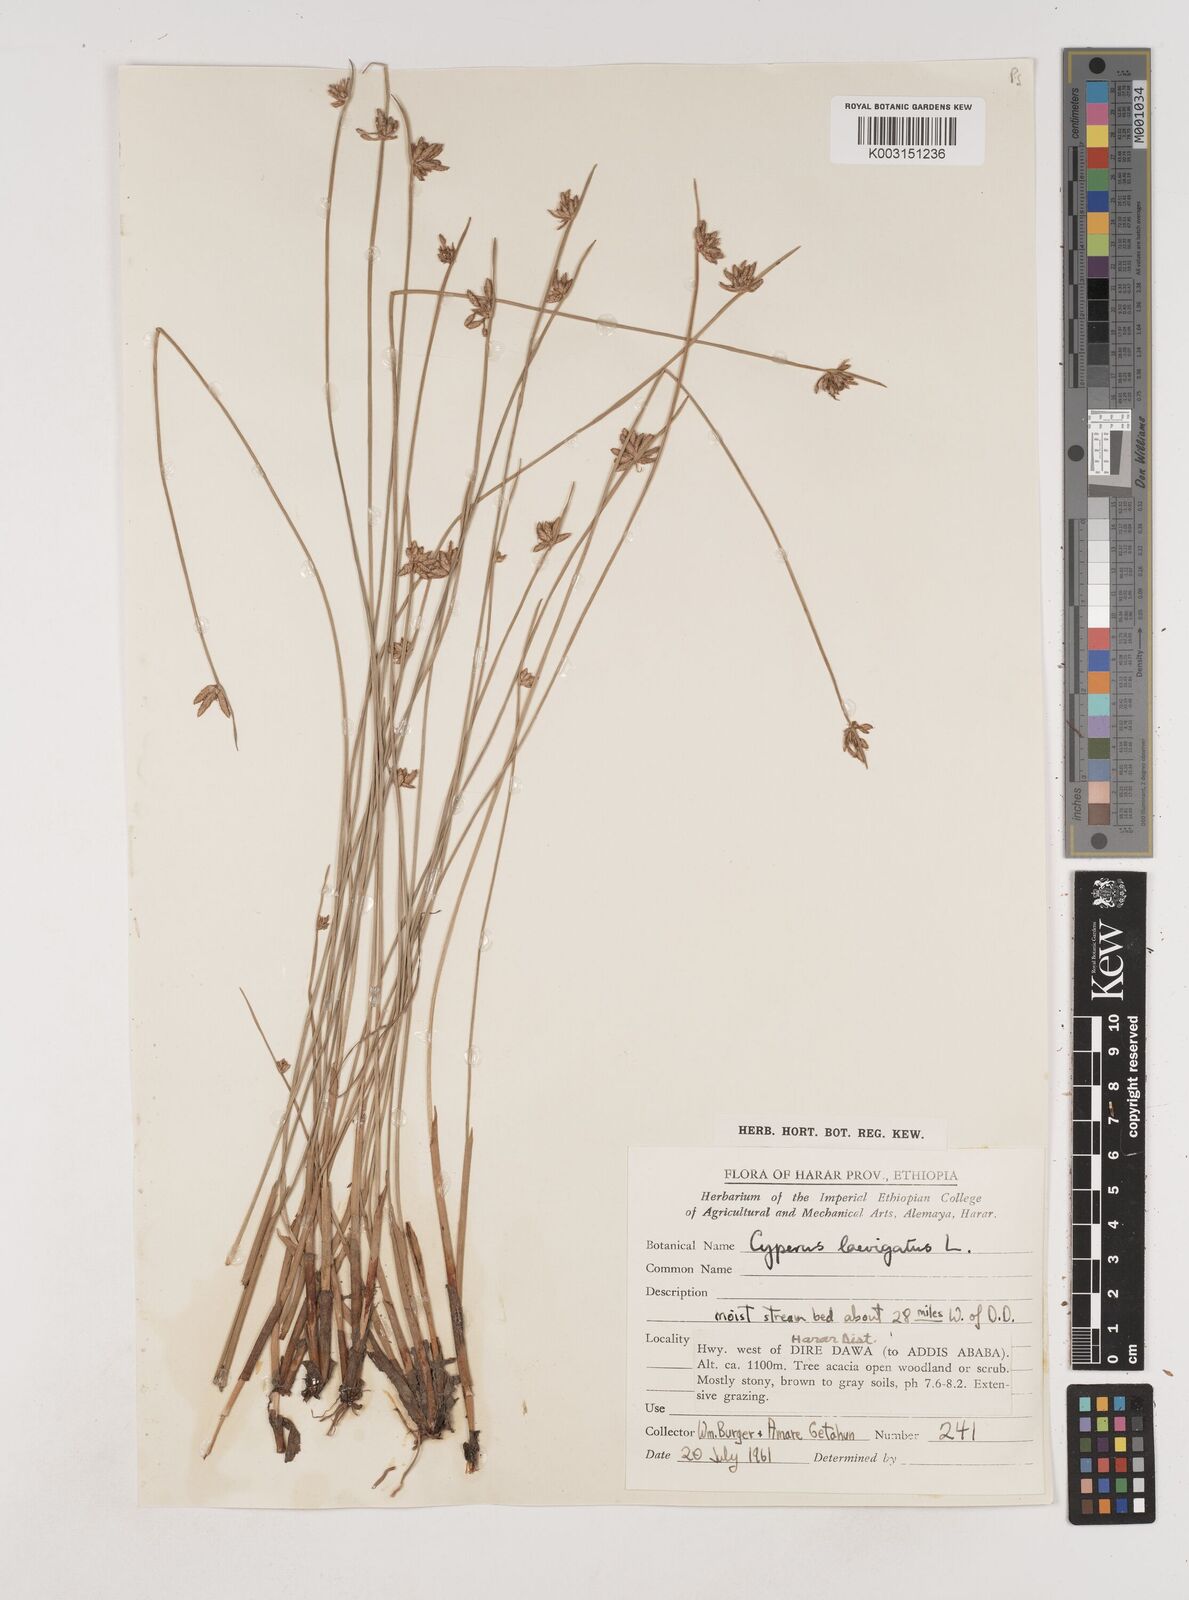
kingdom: Plantae
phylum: Tracheophyta
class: Liliopsida
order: Poales
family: Cyperaceae
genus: Cyperus
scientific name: Cyperus laevigatus
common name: Smooth flat sedge
